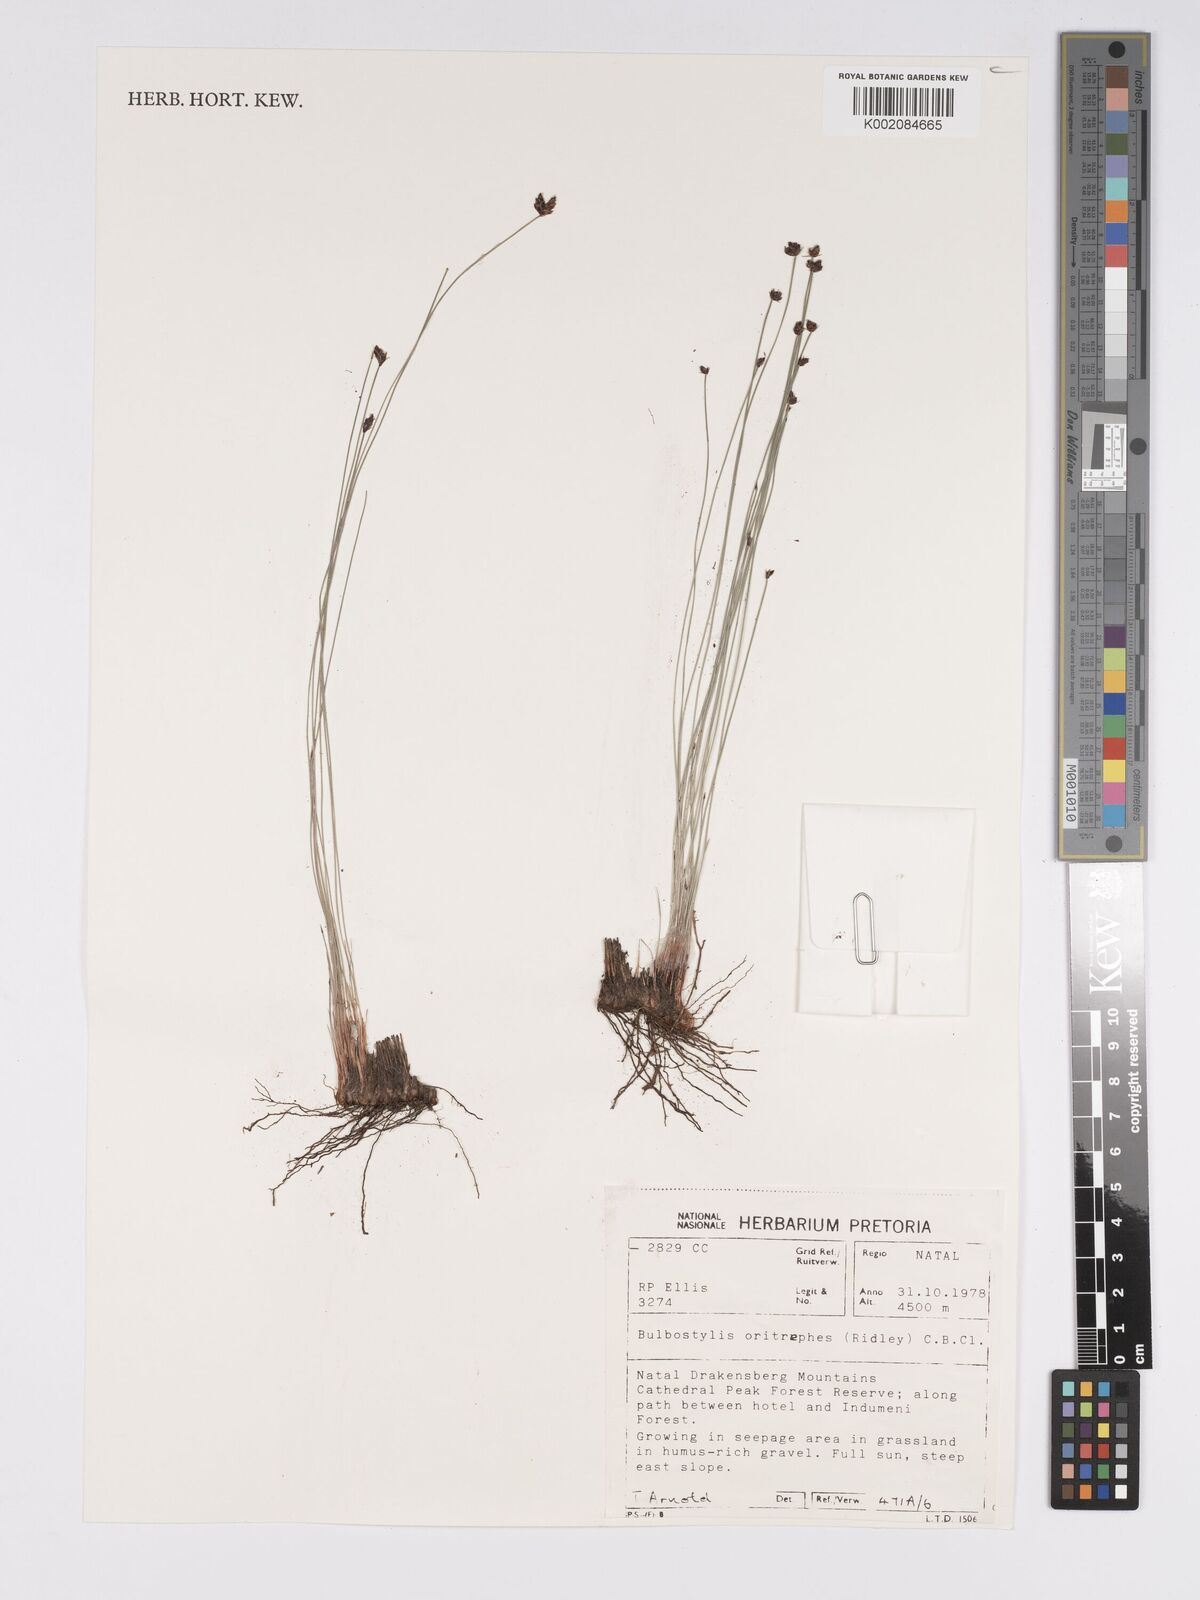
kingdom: Plantae
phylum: Tracheophyta
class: Liliopsida
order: Poales
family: Cyperaceae
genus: Bulbostylis
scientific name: Bulbostylis oritrephes
